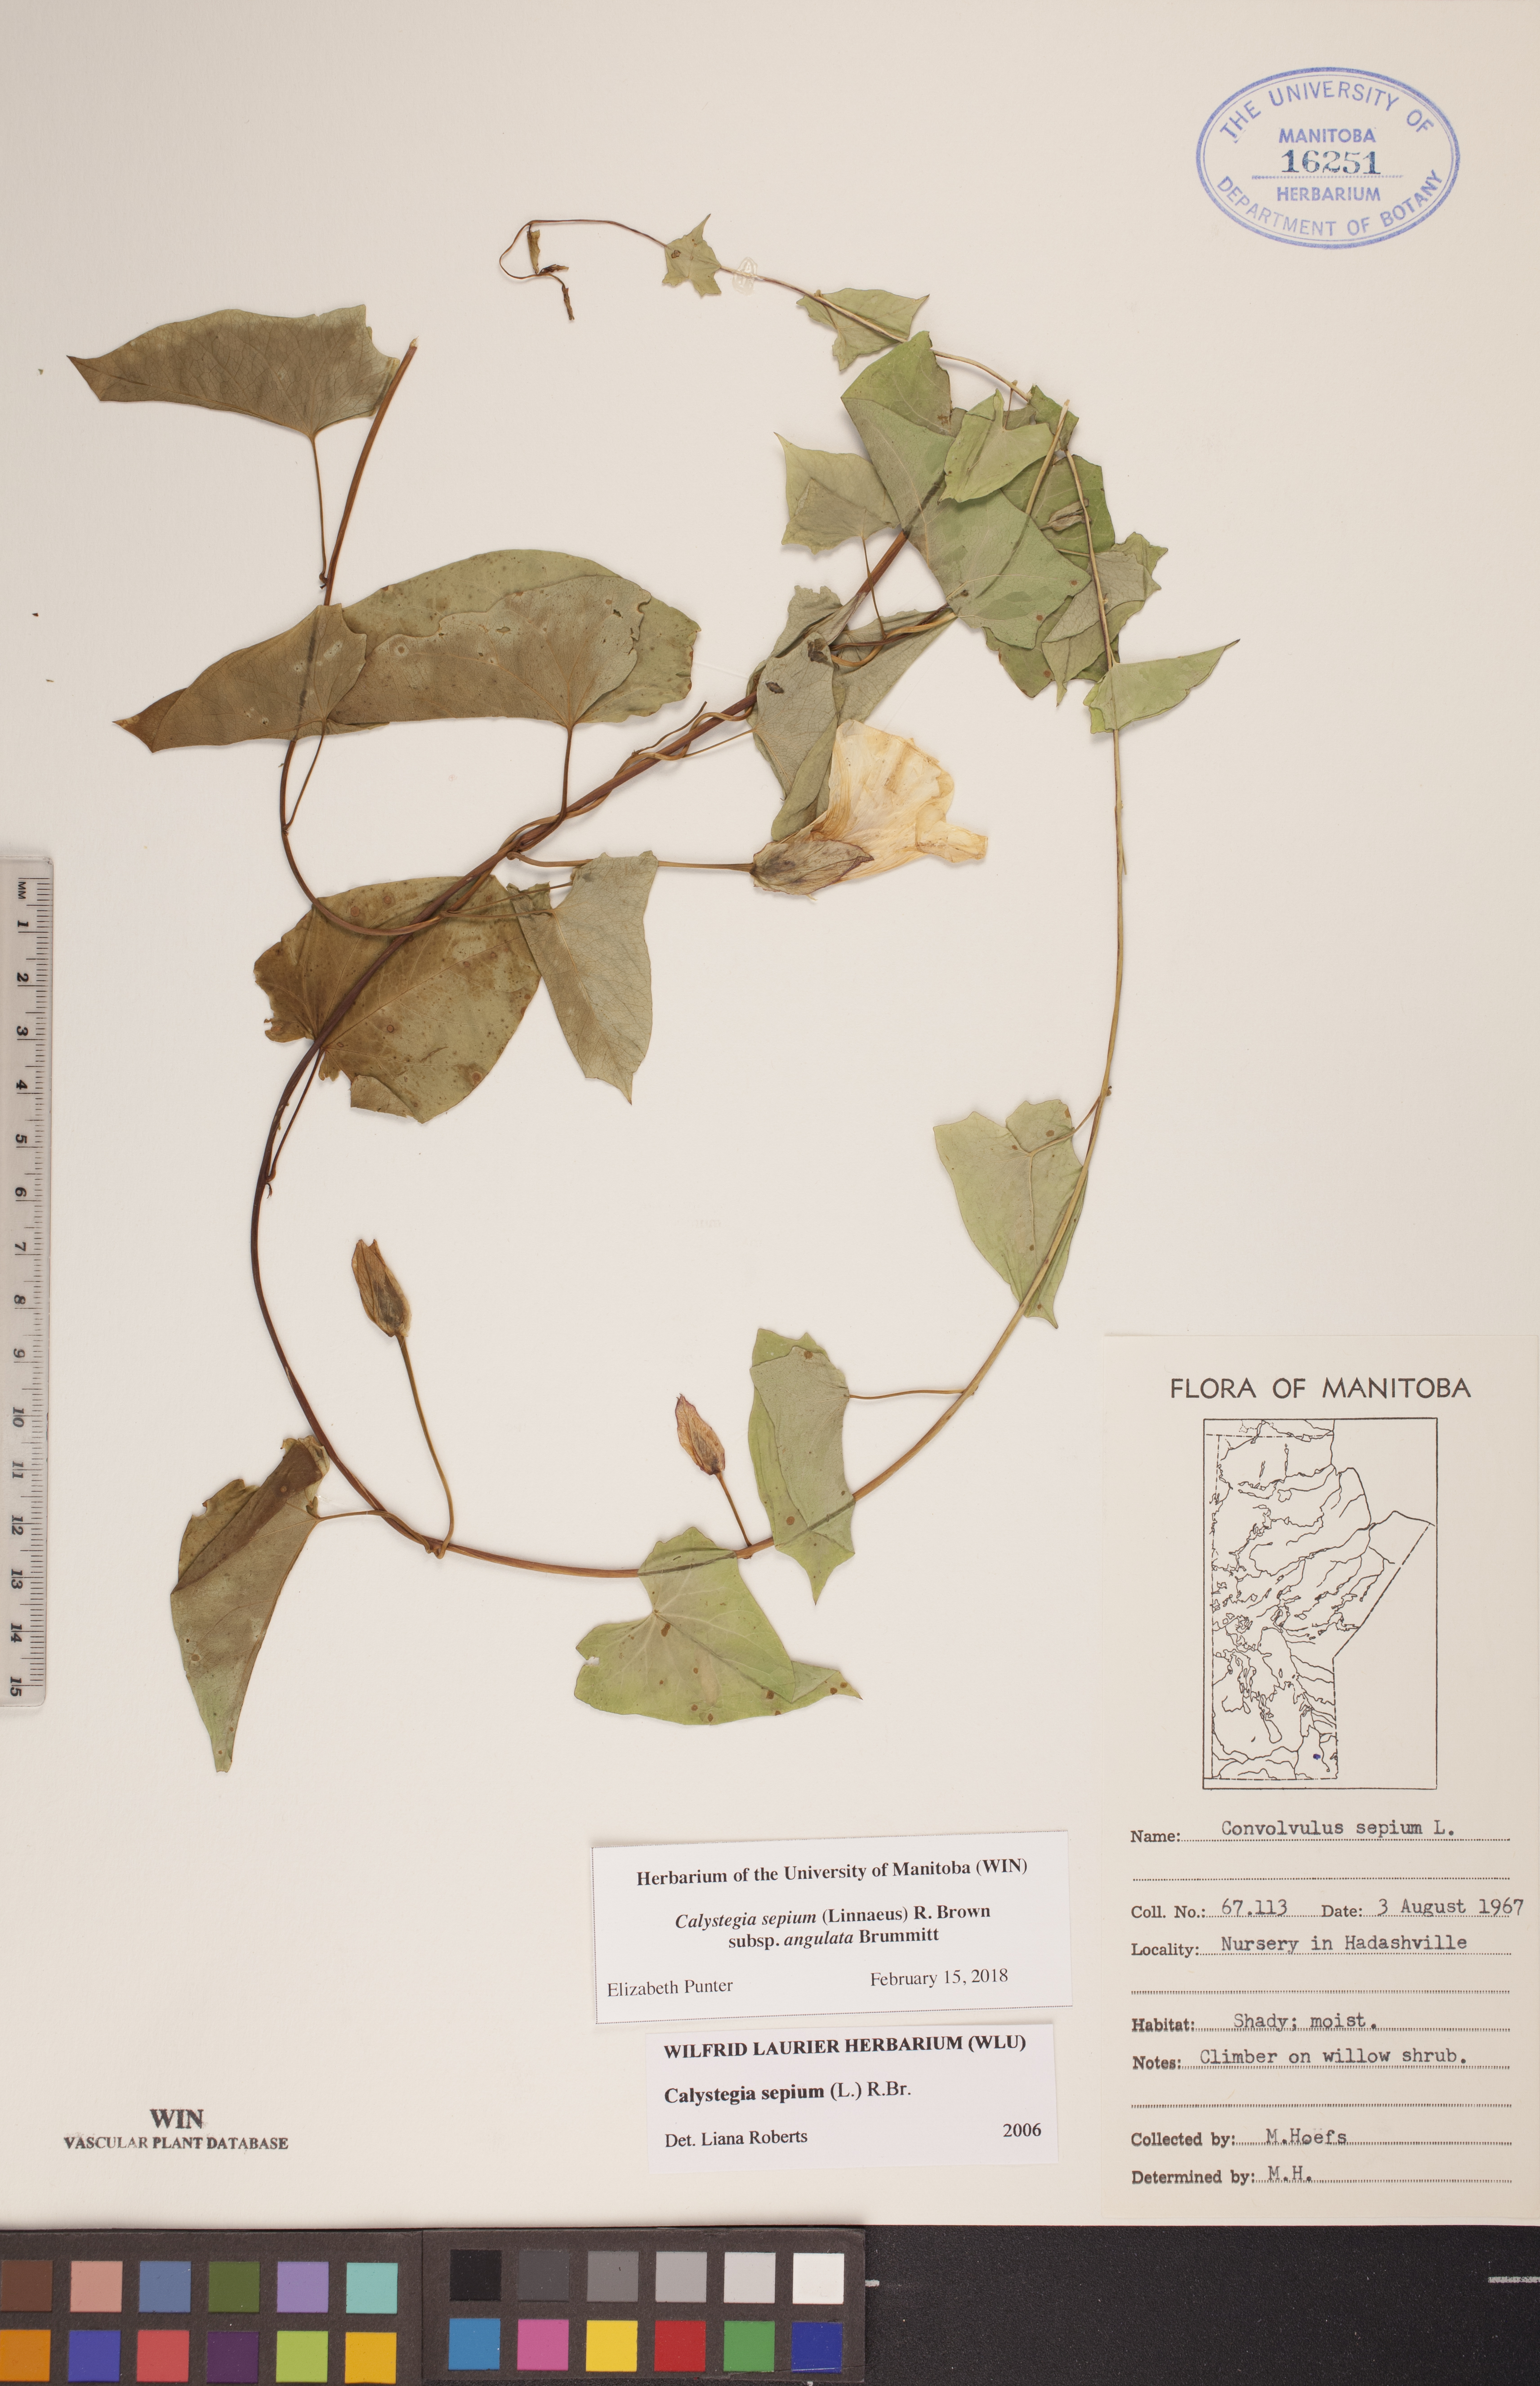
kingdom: Plantae
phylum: Tracheophyta
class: Magnoliopsida
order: Solanales
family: Convolvulaceae
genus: Calystegia
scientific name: Calystegia sepium
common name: Hedge bindweed
